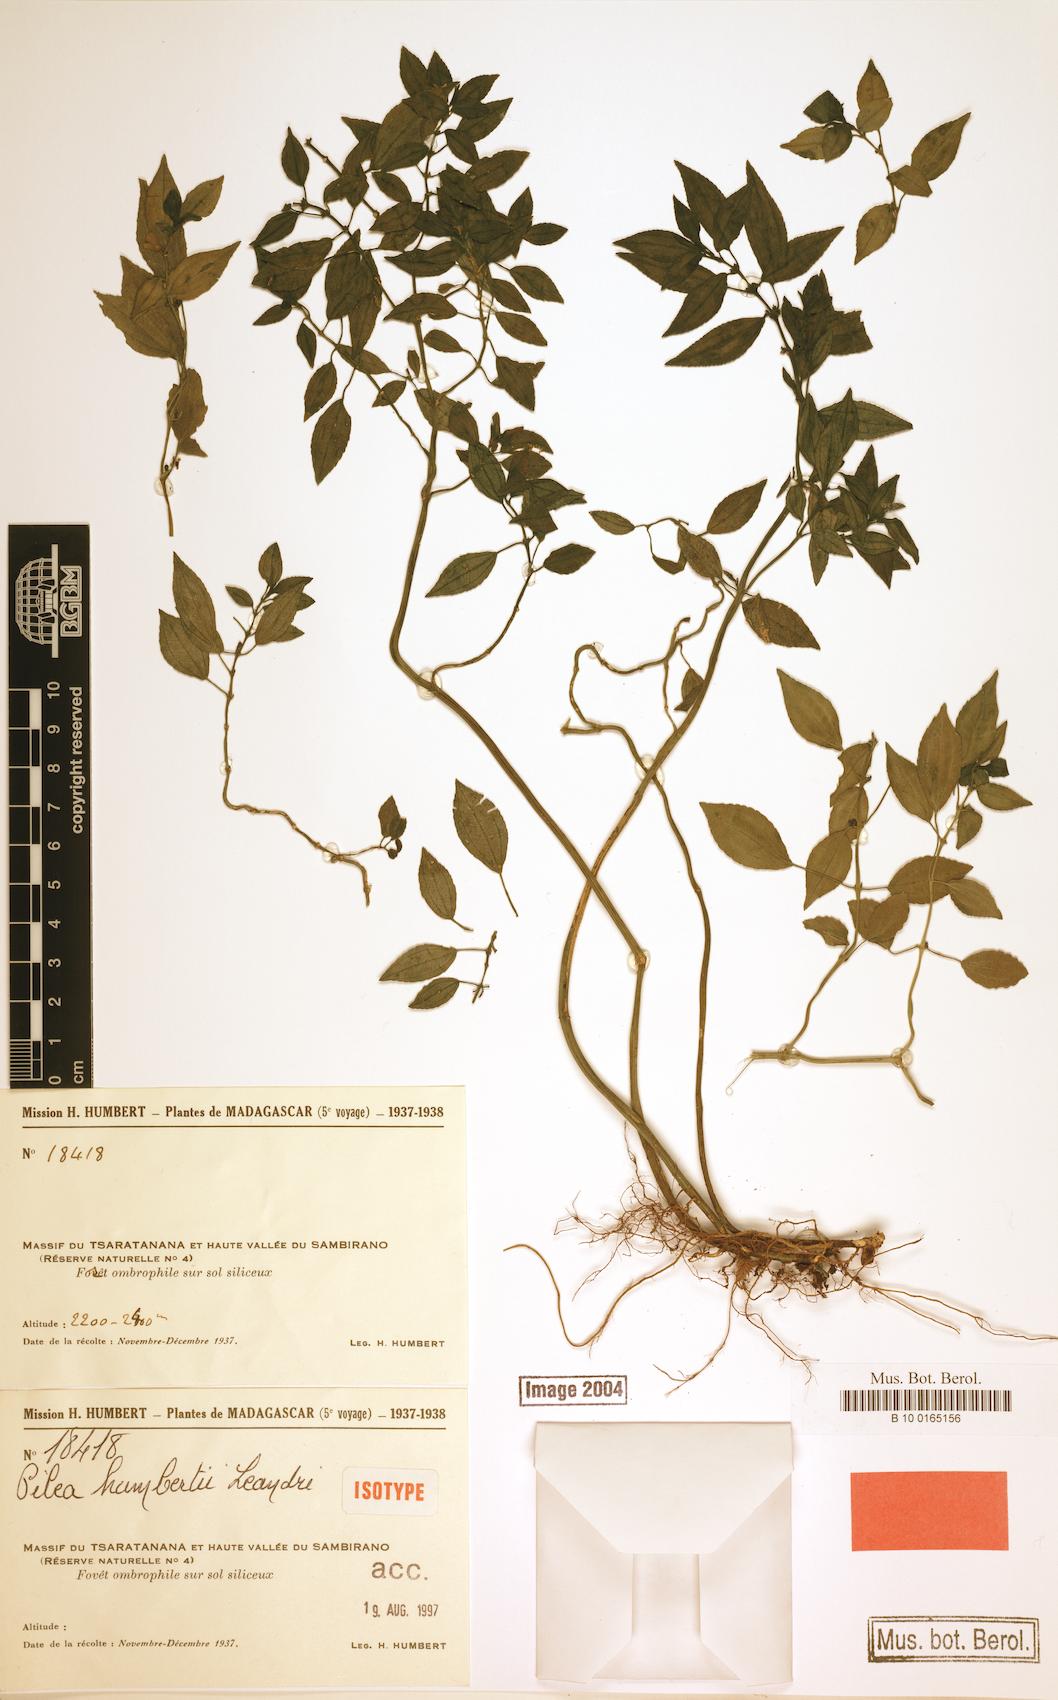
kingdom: Plantae
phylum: Tracheophyta
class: Magnoliopsida
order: Rosales
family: Urticaceae
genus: Pilea
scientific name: Pilea humbertii
